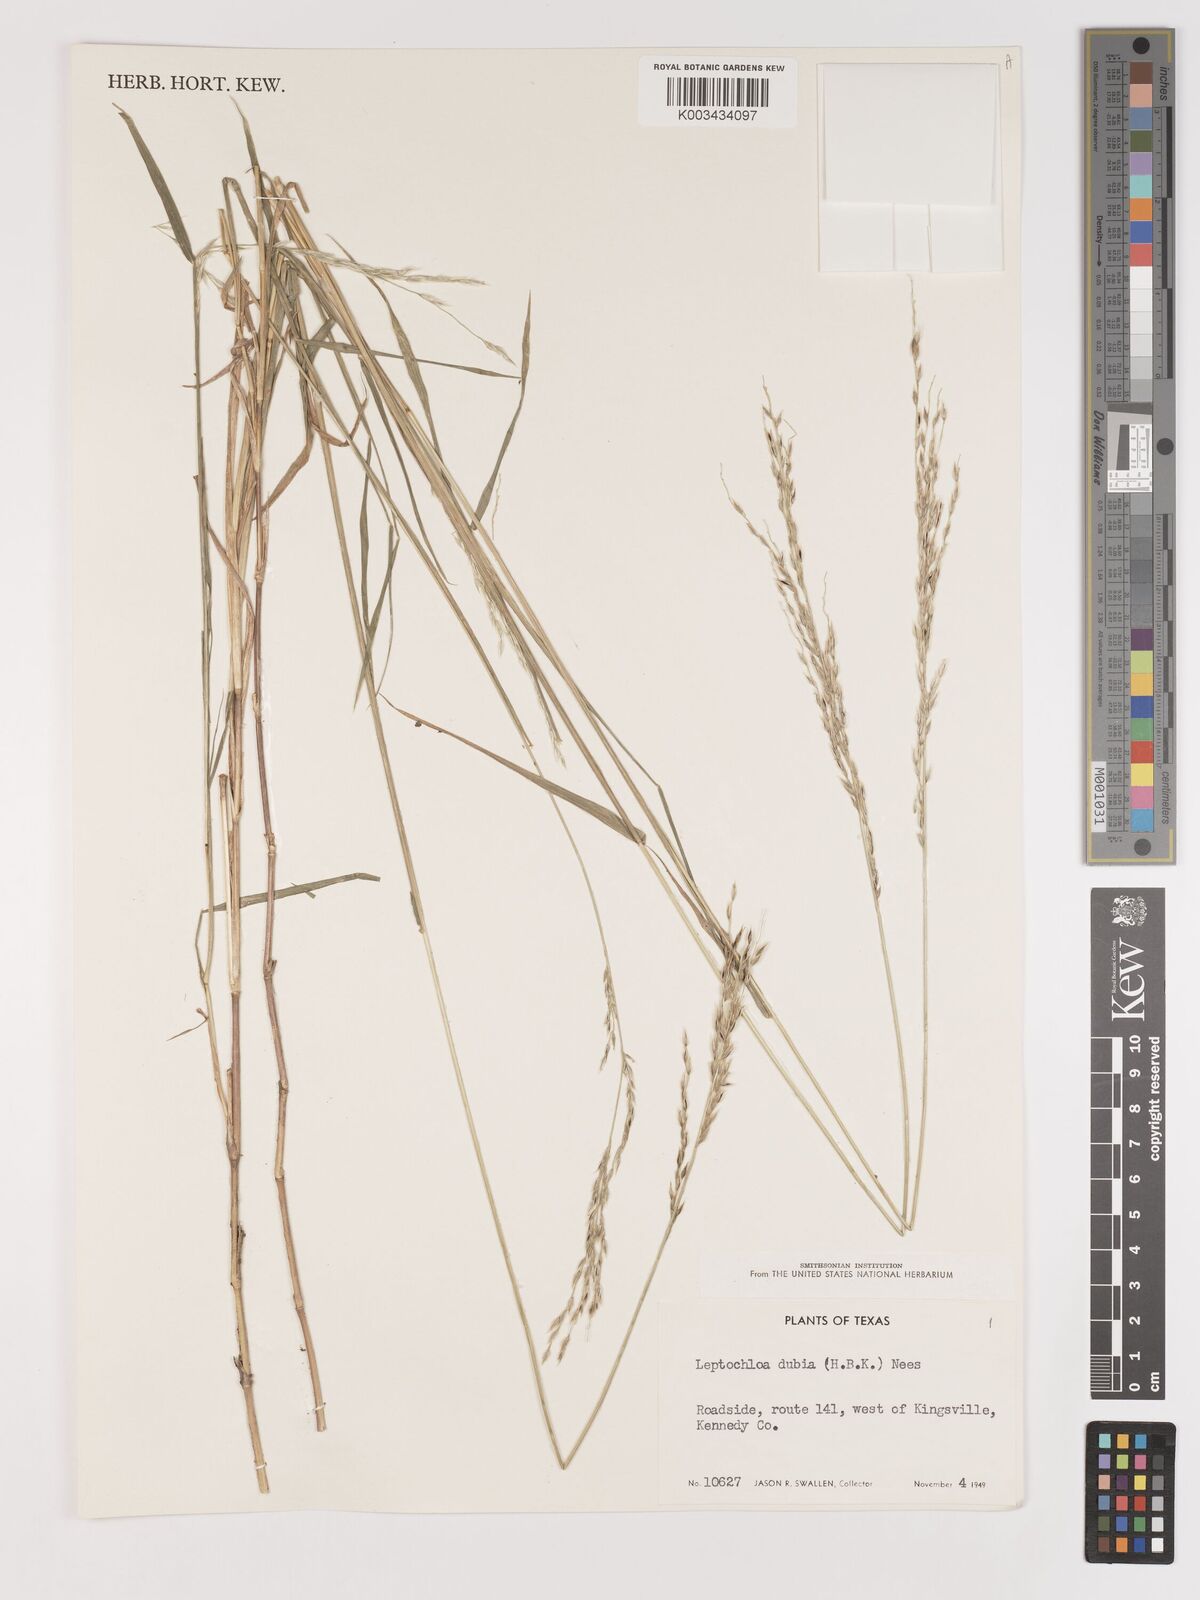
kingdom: Plantae
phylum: Tracheophyta
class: Liliopsida
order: Poales
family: Poaceae
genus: Digitaria
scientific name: Digitaria spec
